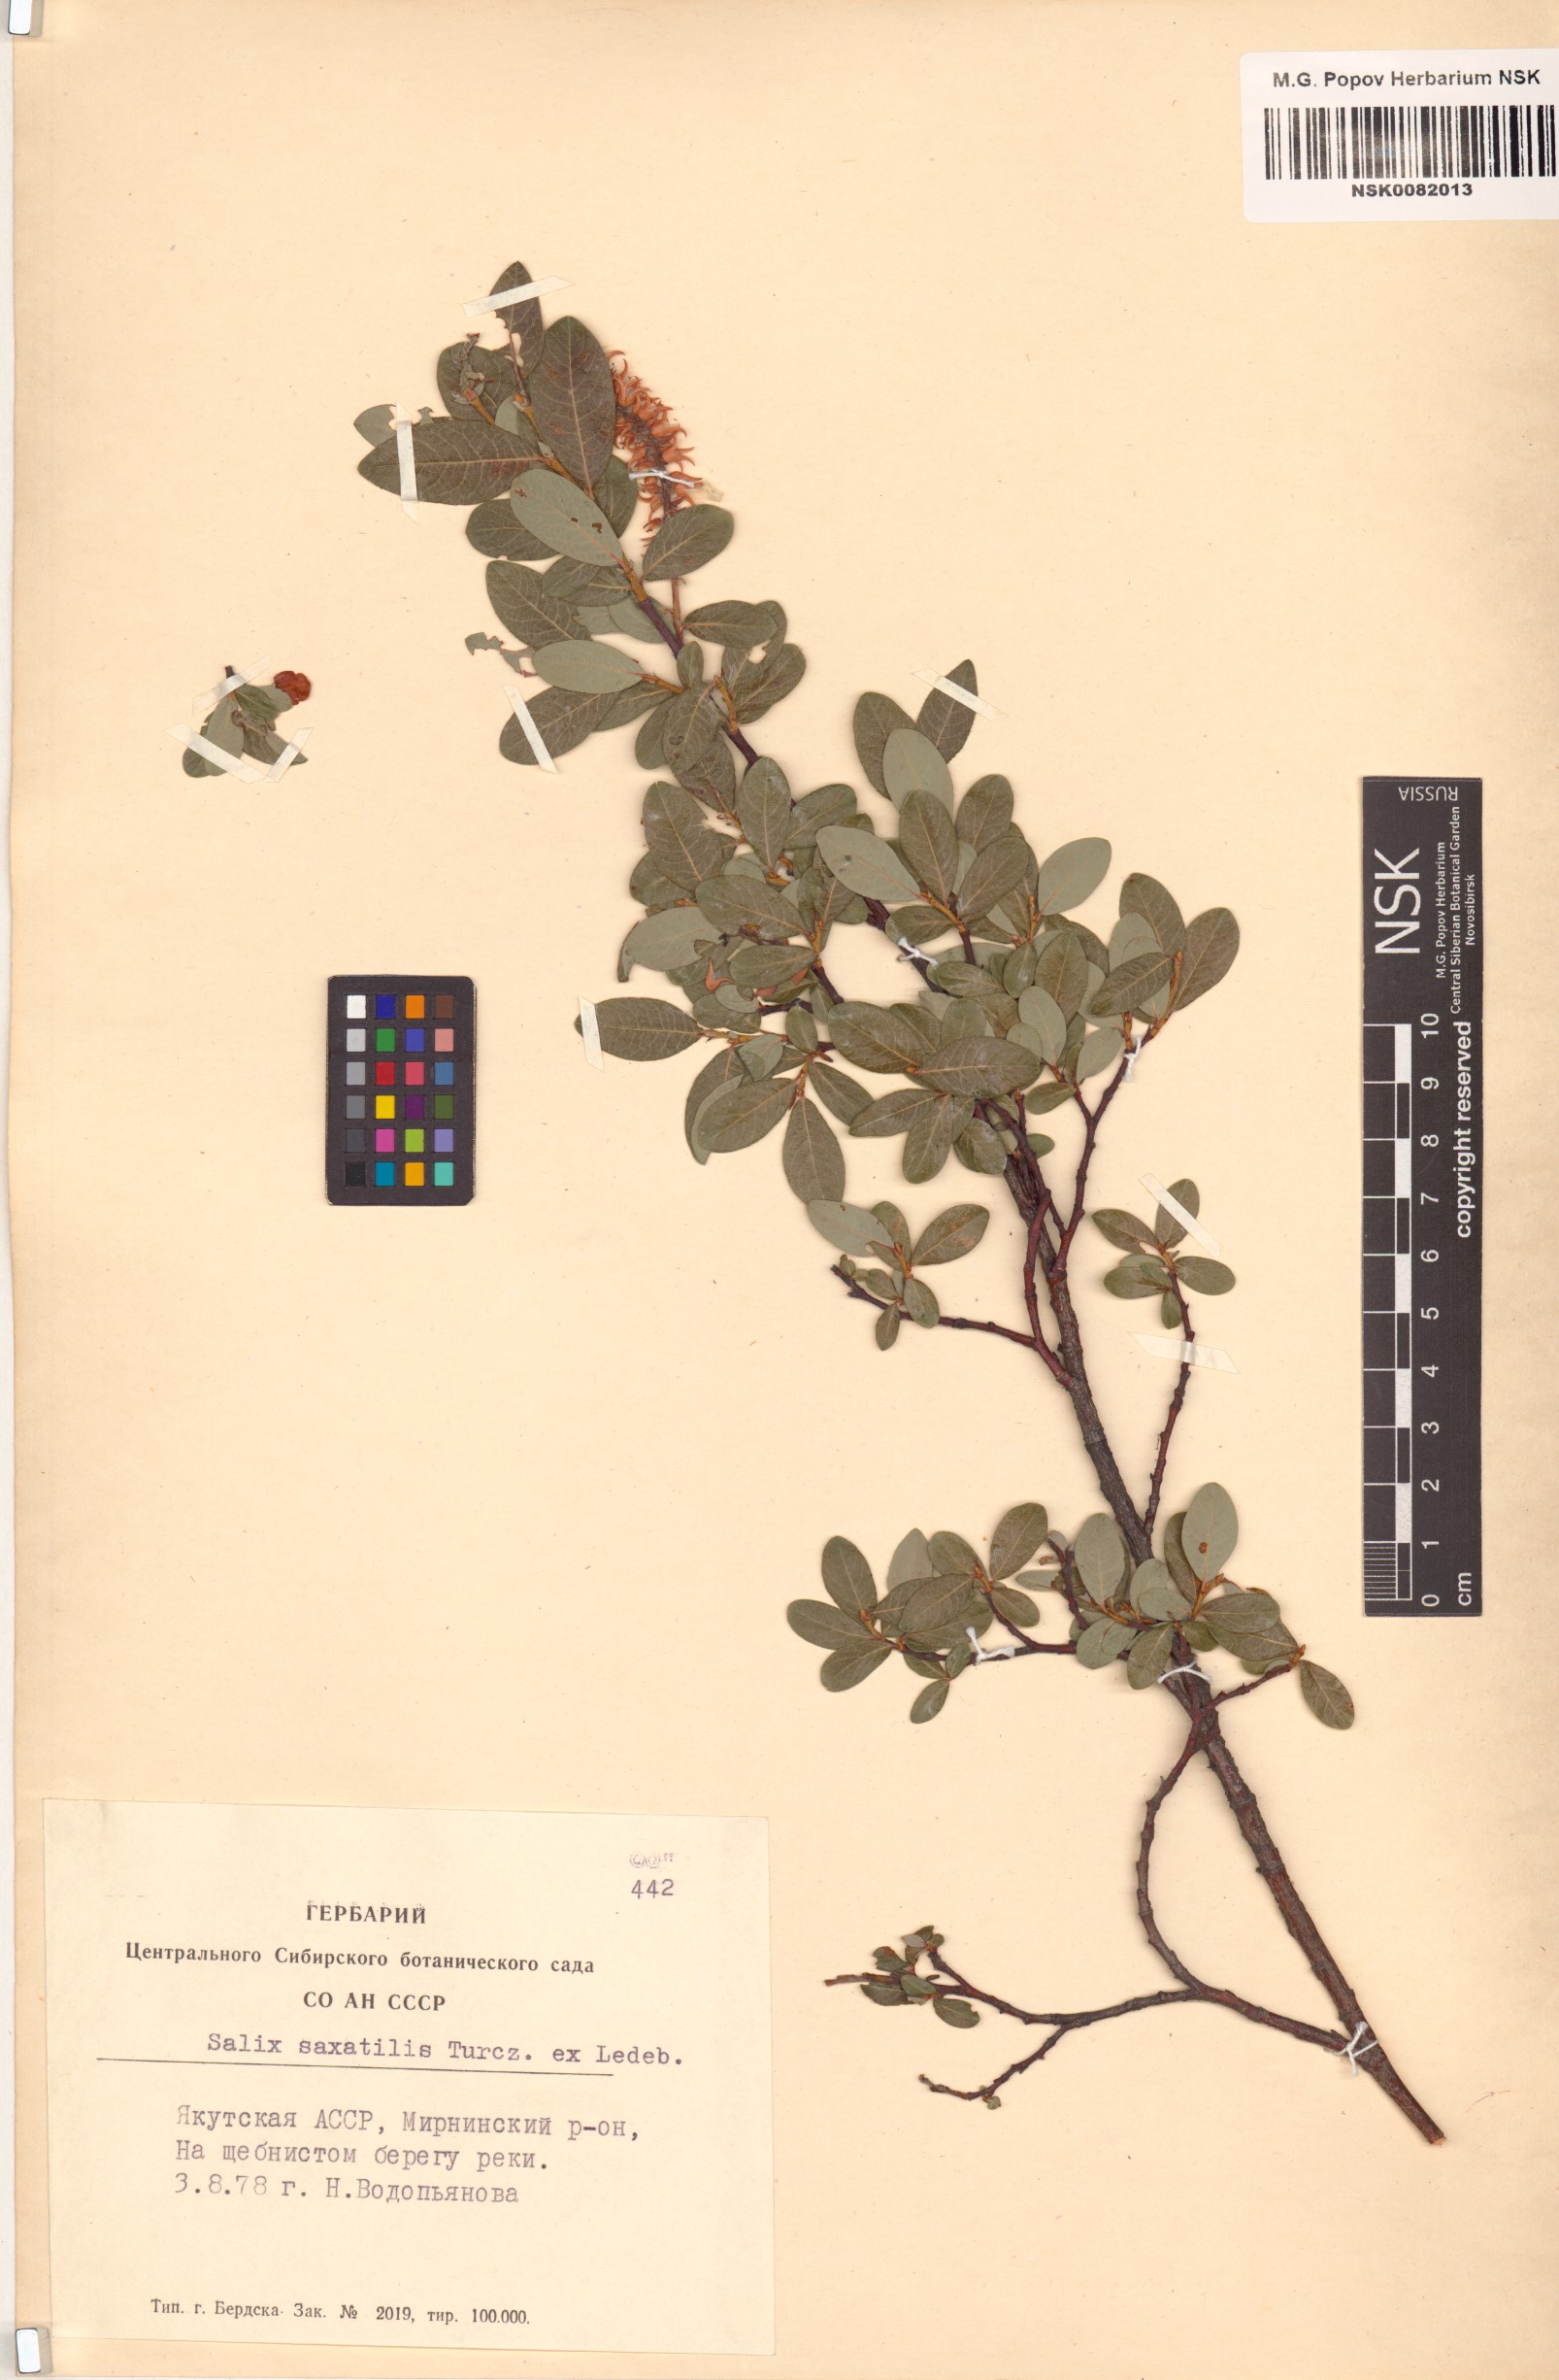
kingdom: Plantae
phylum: Tracheophyta
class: Magnoliopsida
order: Malpighiales
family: Salicaceae
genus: Salix
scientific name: Salix saxatilis
